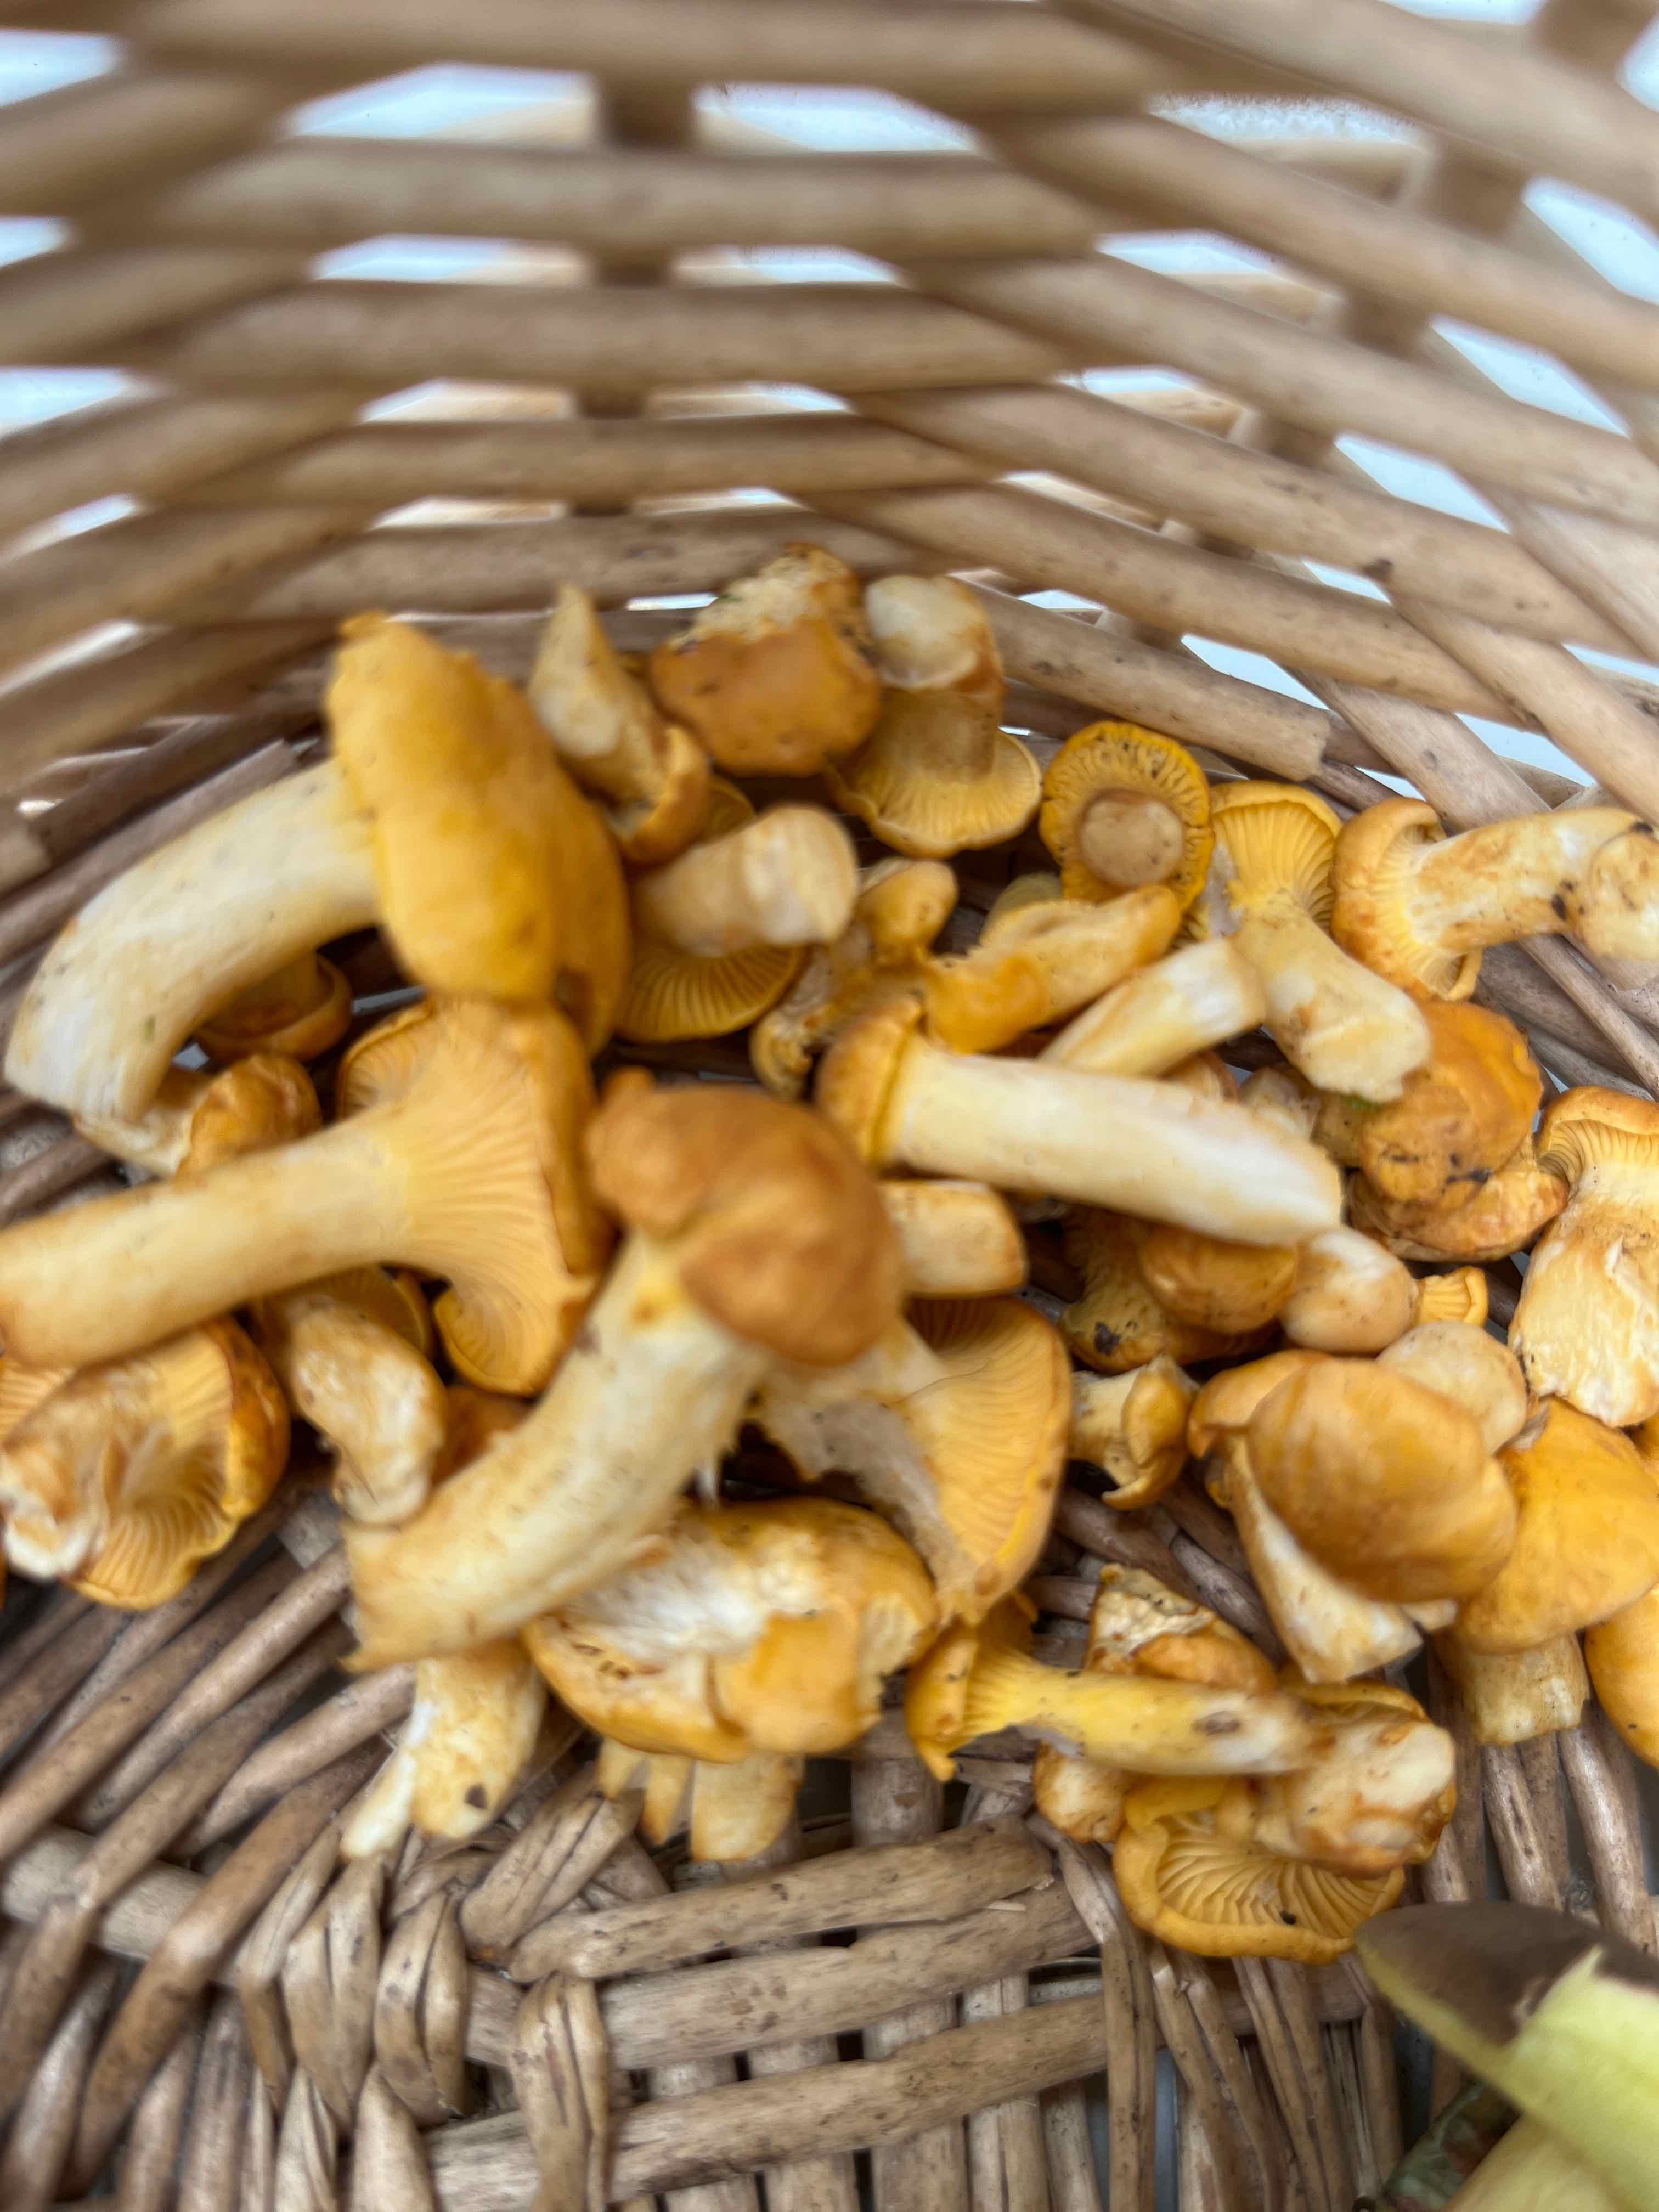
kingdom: Fungi
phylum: Basidiomycota
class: Agaricomycetes
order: Cantharellales
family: Hydnaceae
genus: Cantharellus
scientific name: Cantharellus cibarius
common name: almindelig kantarel
